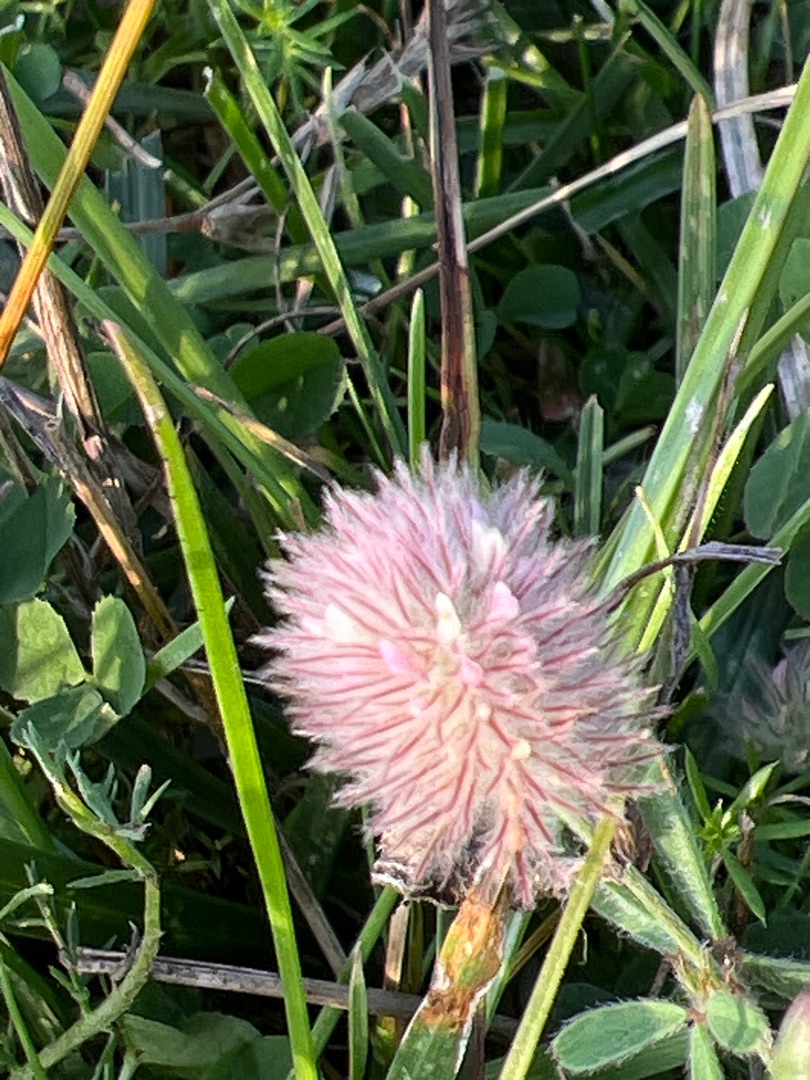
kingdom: Plantae
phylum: Tracheophyta
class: Magnoliopsida
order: Fabales
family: Fabaceae
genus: Trifolium
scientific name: Trifolium arvense
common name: Hare-kløver
